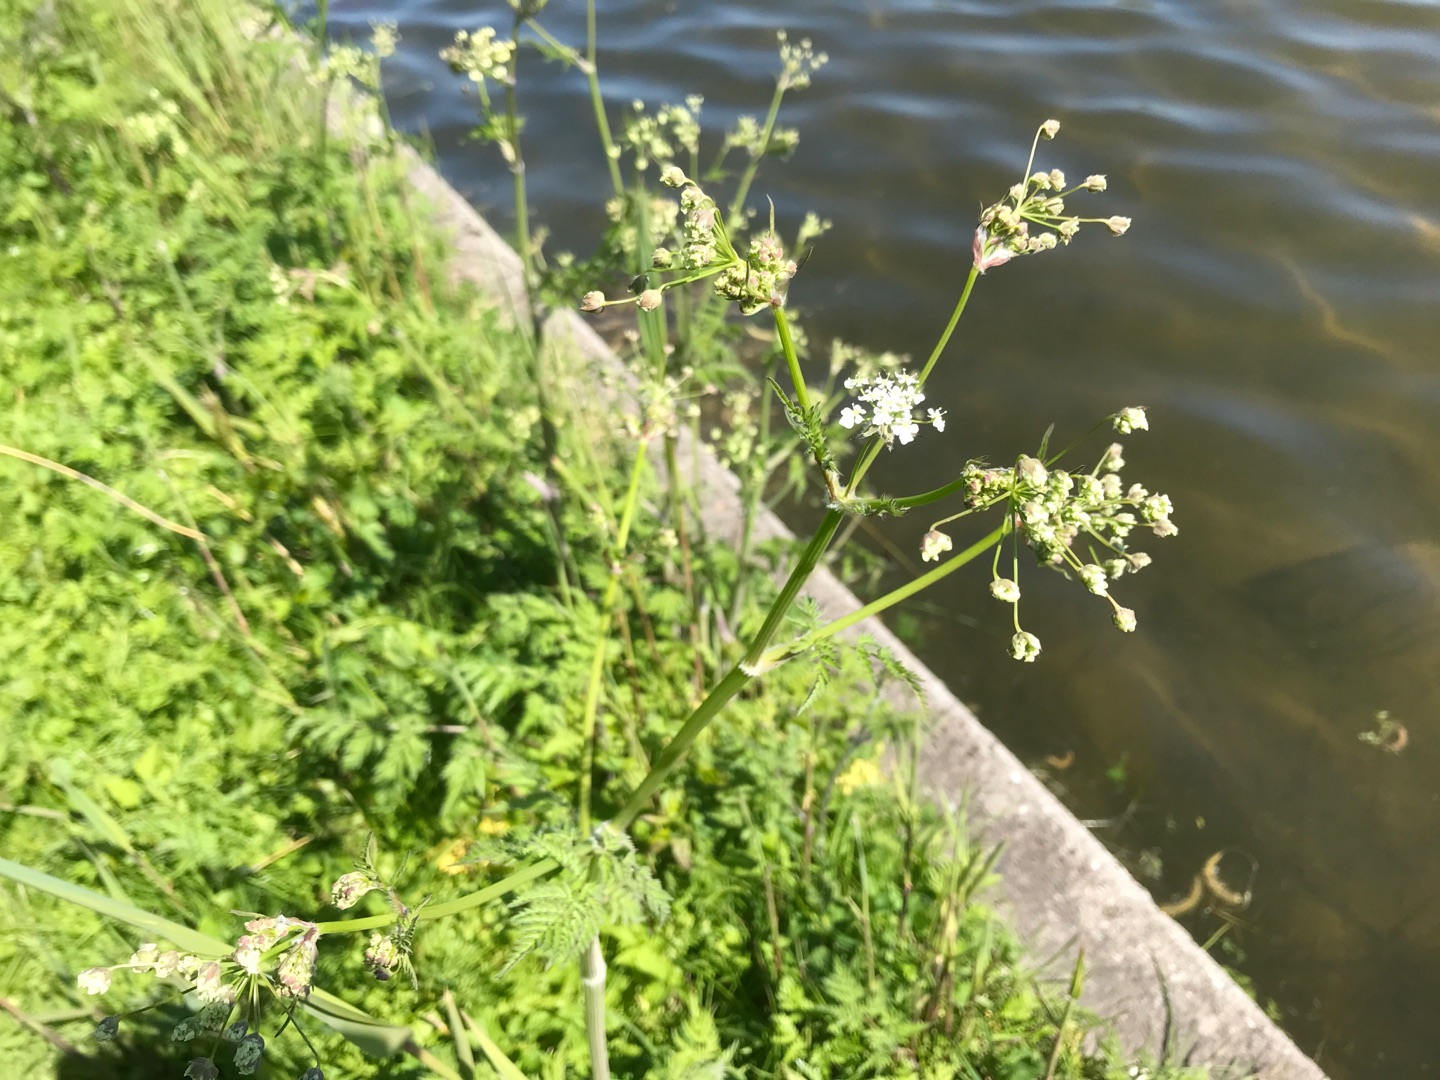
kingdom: Plantae
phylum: Tracheophyta
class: Magnoliopsida
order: Apiales
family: Apiaceae
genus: Anthriscus
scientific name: Anthriscus sylvestris
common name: Vild kørvel
